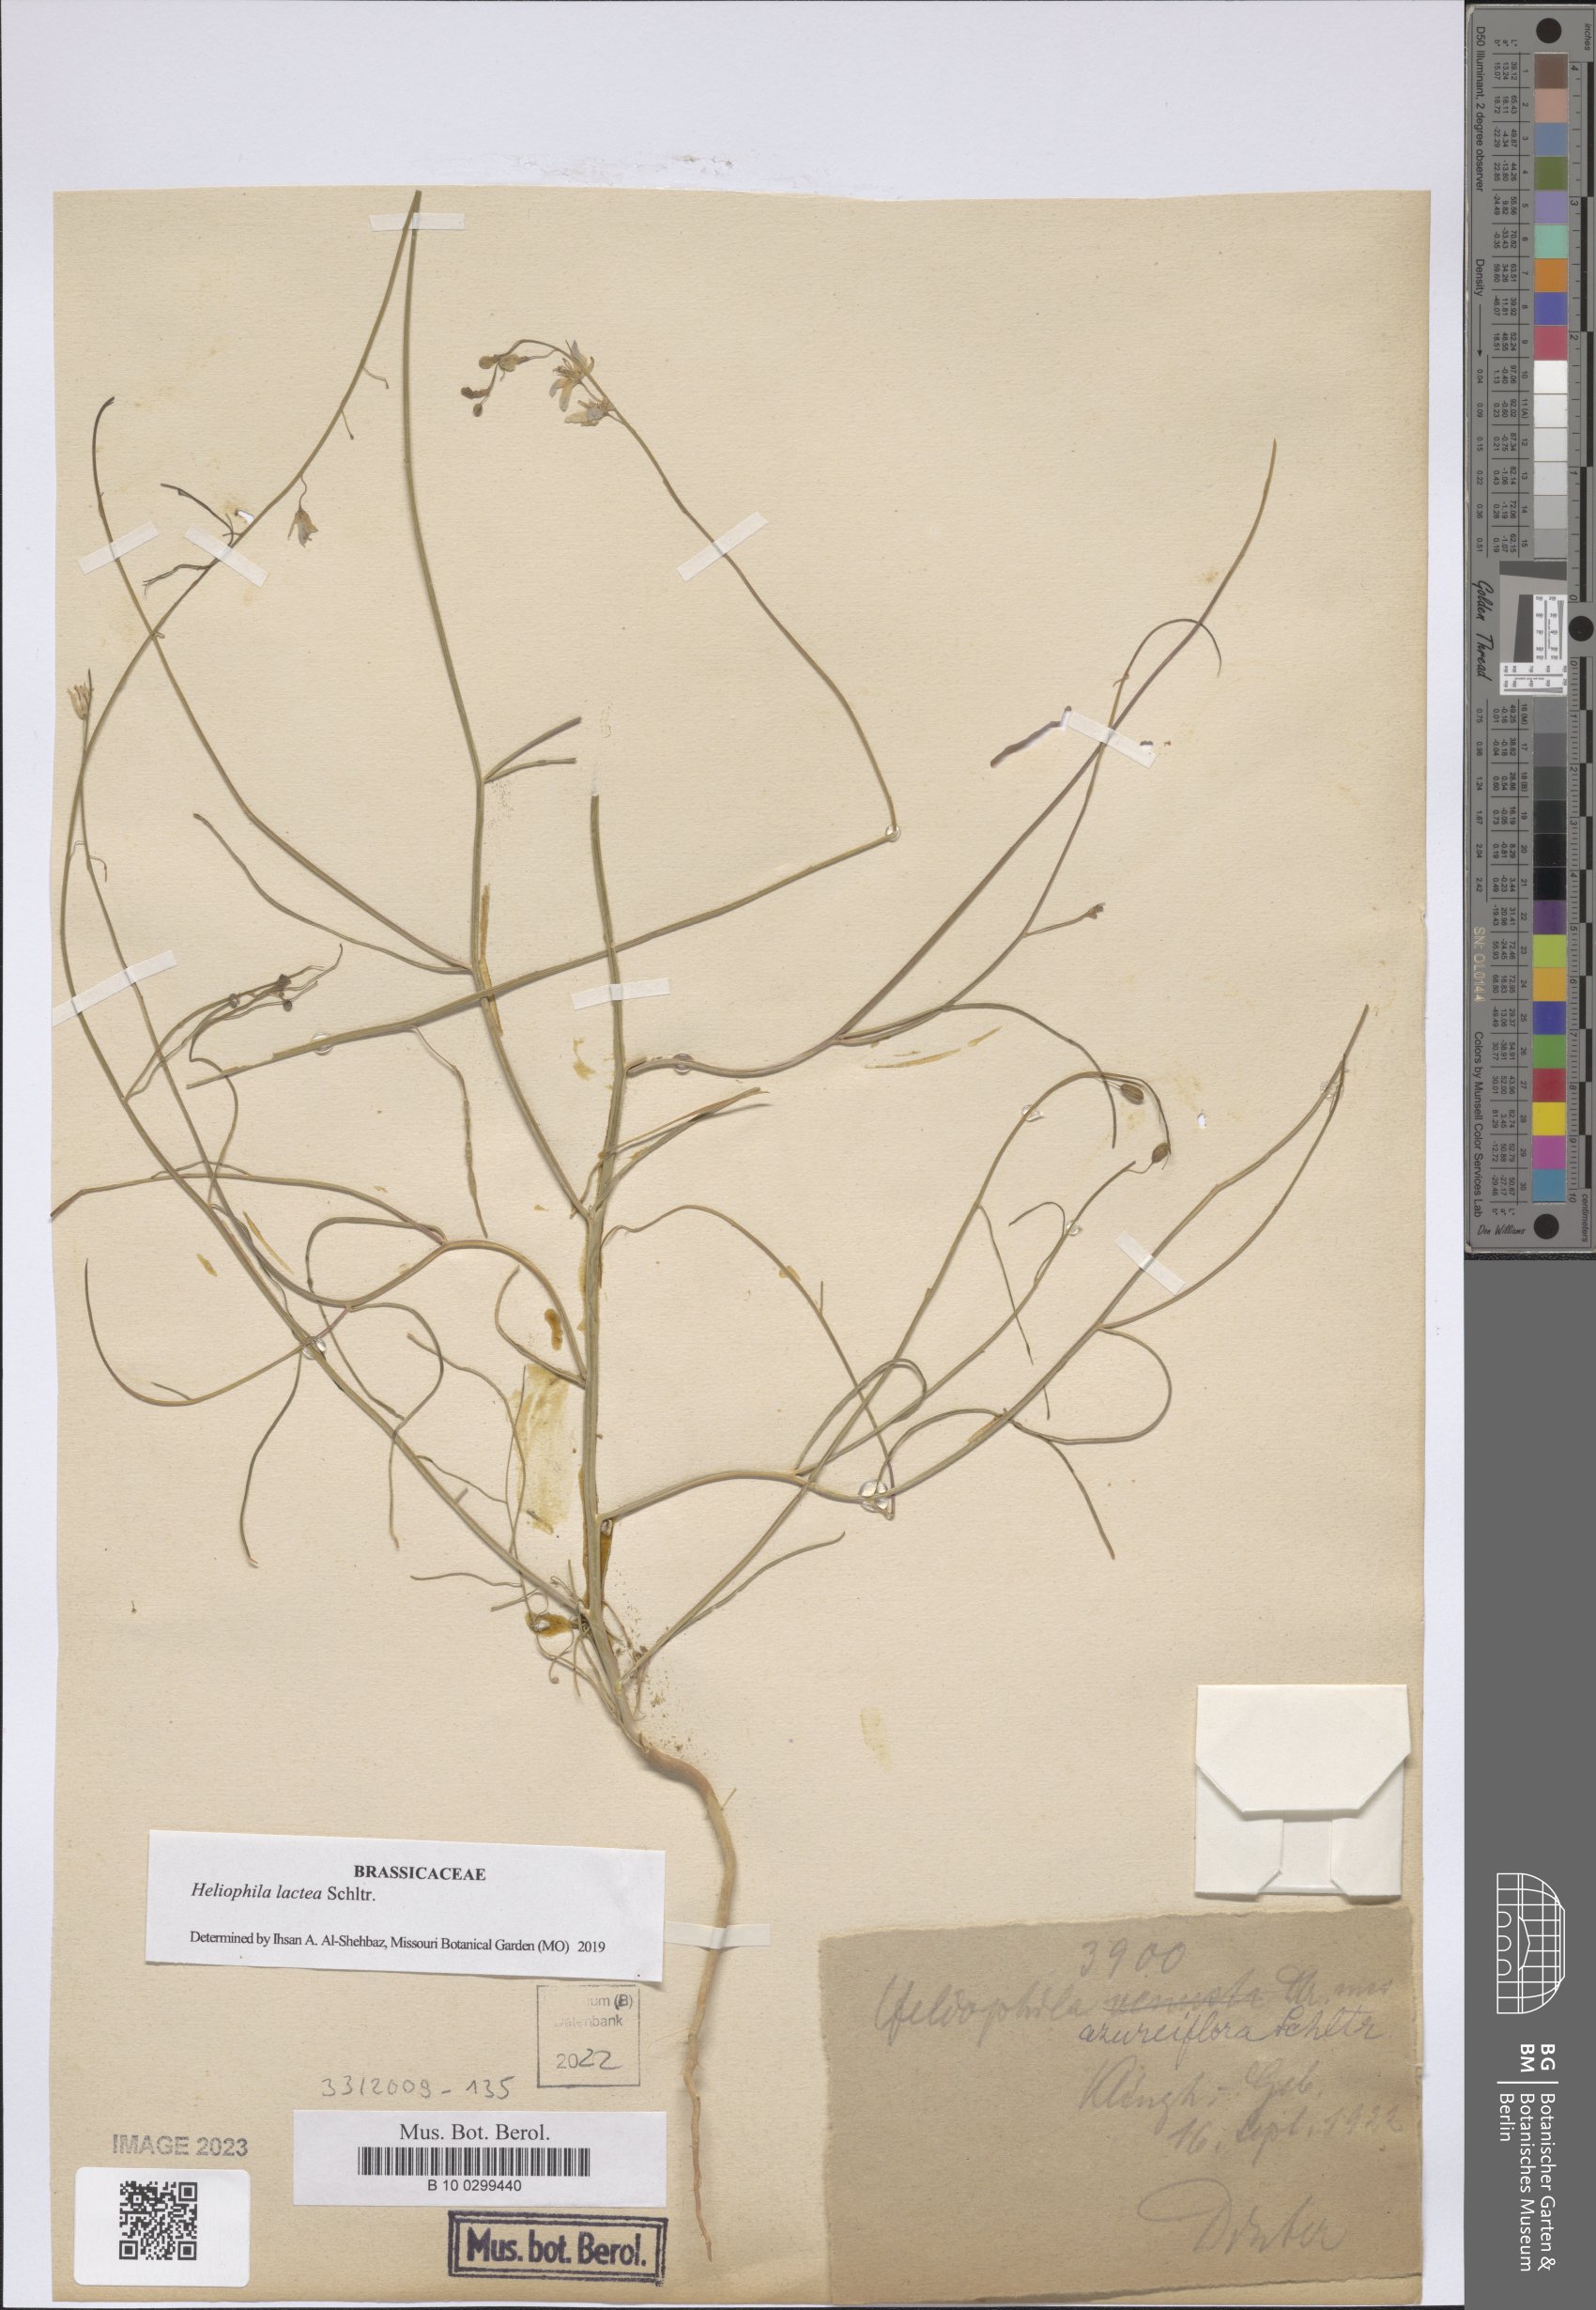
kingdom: Plantae
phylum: Tracheophyta
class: Magnoliopsida
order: Brassicales
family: Brassicaceae
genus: Heliophila
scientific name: Heliophila lactea
